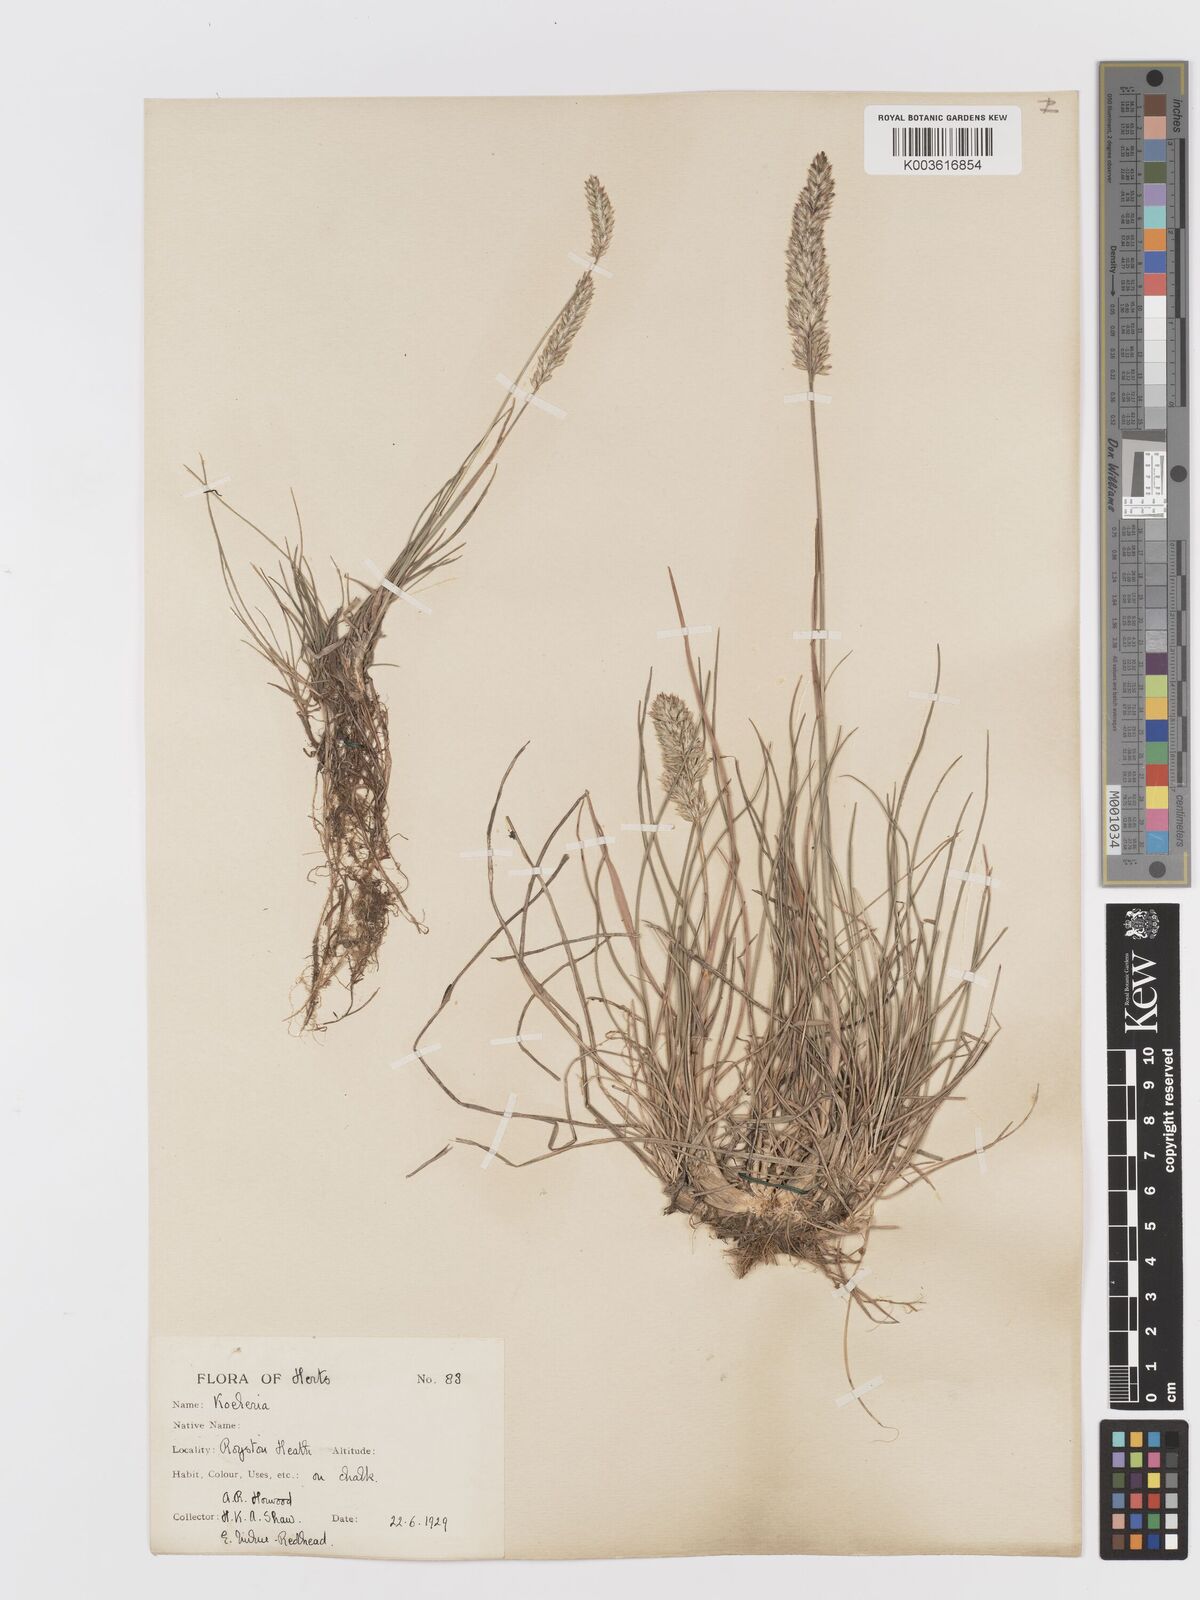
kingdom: Plantae
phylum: Tracheophyta
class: Liliopsida
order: Poales
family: Poaceae
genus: Koeleria
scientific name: Koeleria macrantha
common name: Crested hair-grass
